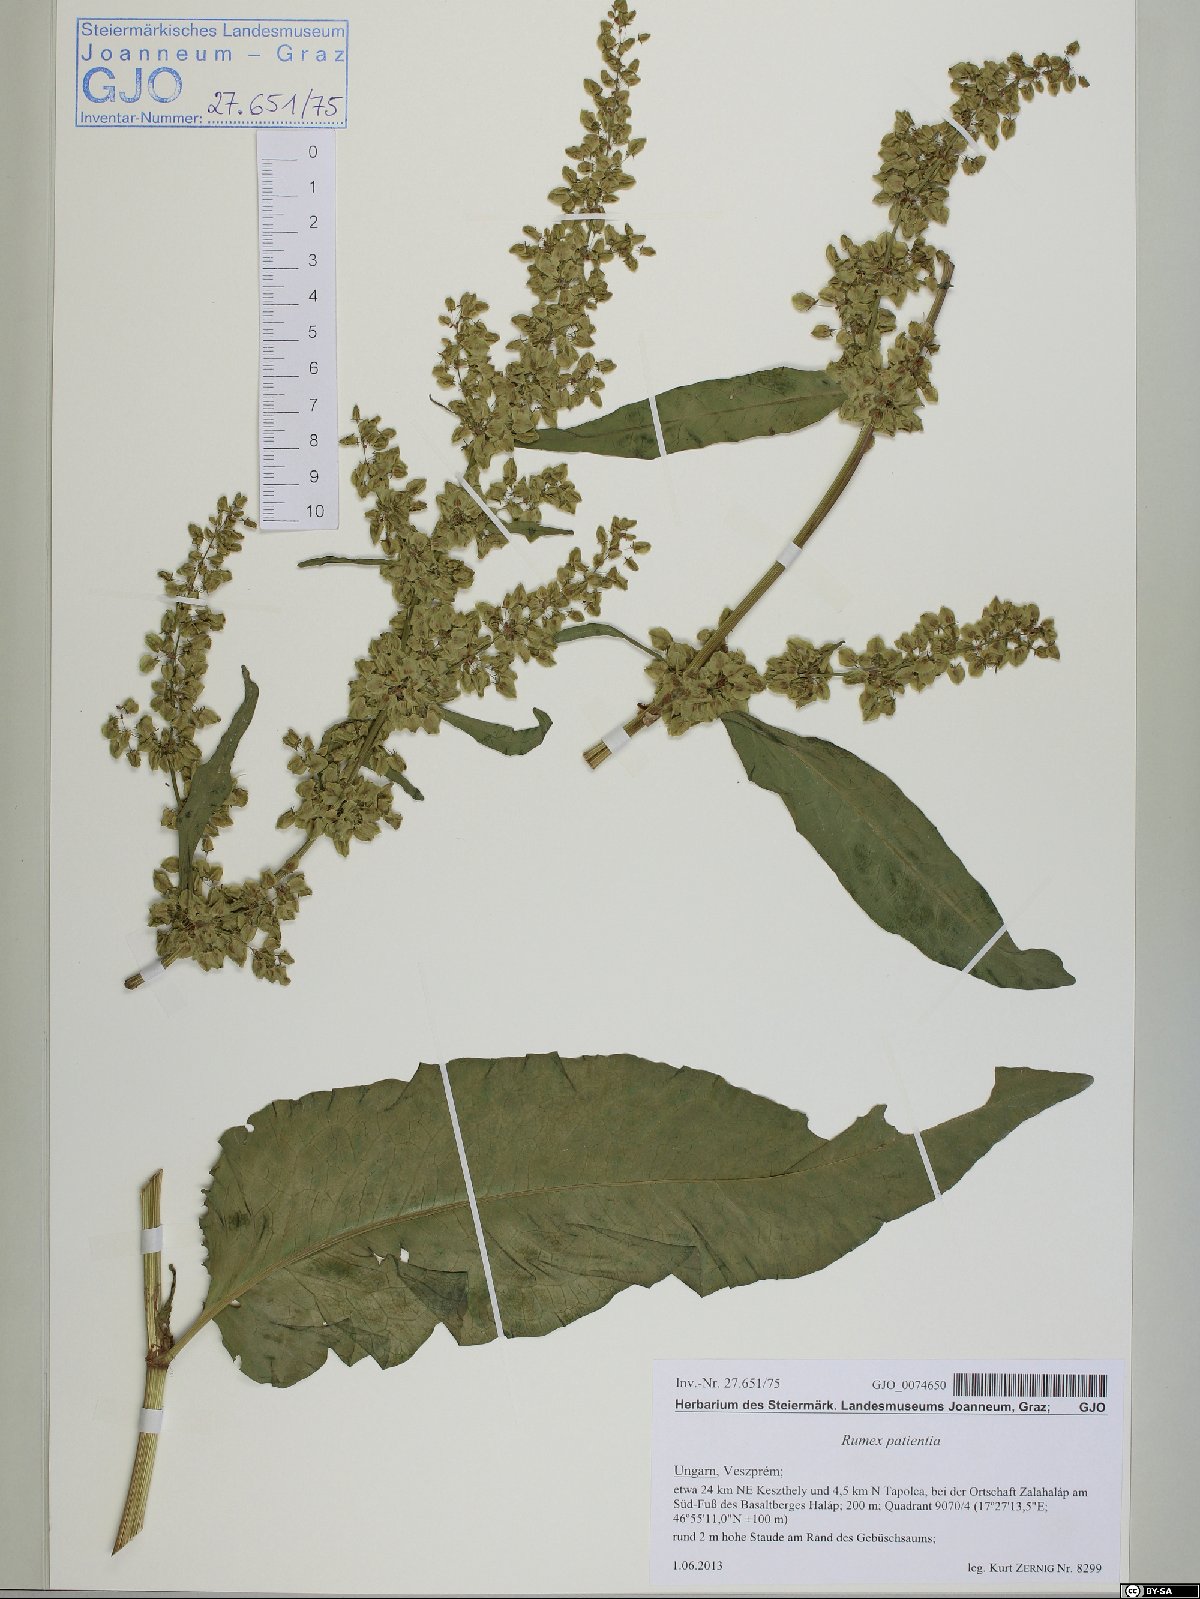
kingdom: Plantae
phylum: Tracheophyta
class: Magnoliopsida
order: Caryophyllales
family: Polygonaceae
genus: Rumex
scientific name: Rumex patientia
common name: Patience dock
